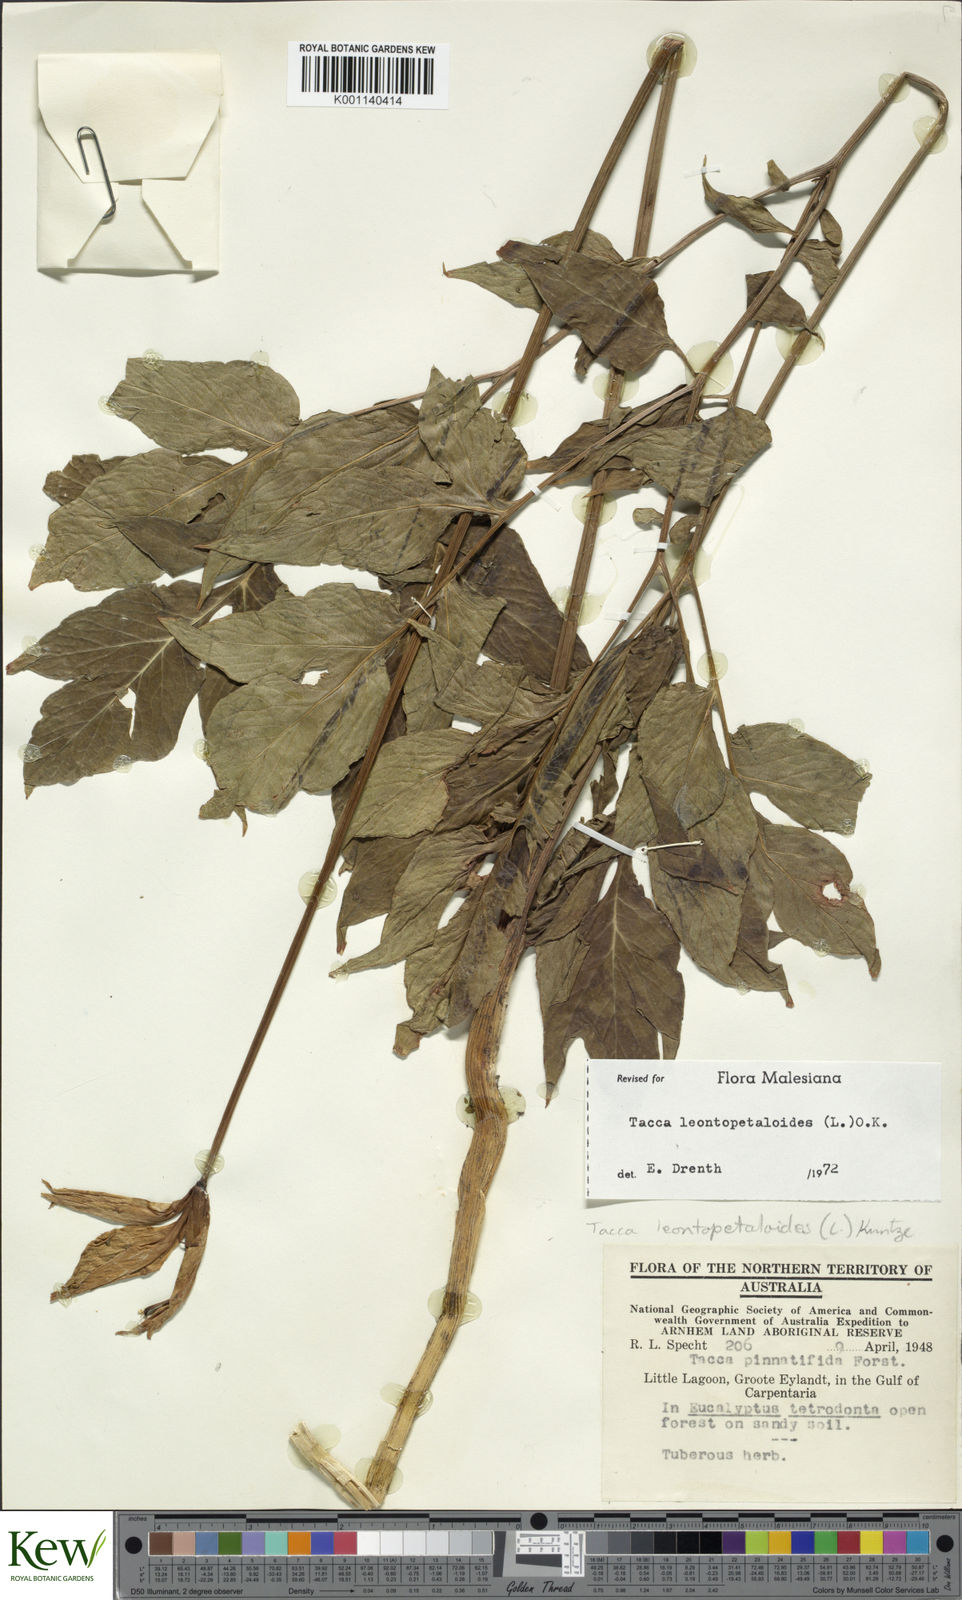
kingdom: Plantae
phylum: Tracheophyta
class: Liliopsida
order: Dioscoreales
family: Dioscoreaceae
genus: Tacca
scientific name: Tacca leontopetaloides
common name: Arrowroot
